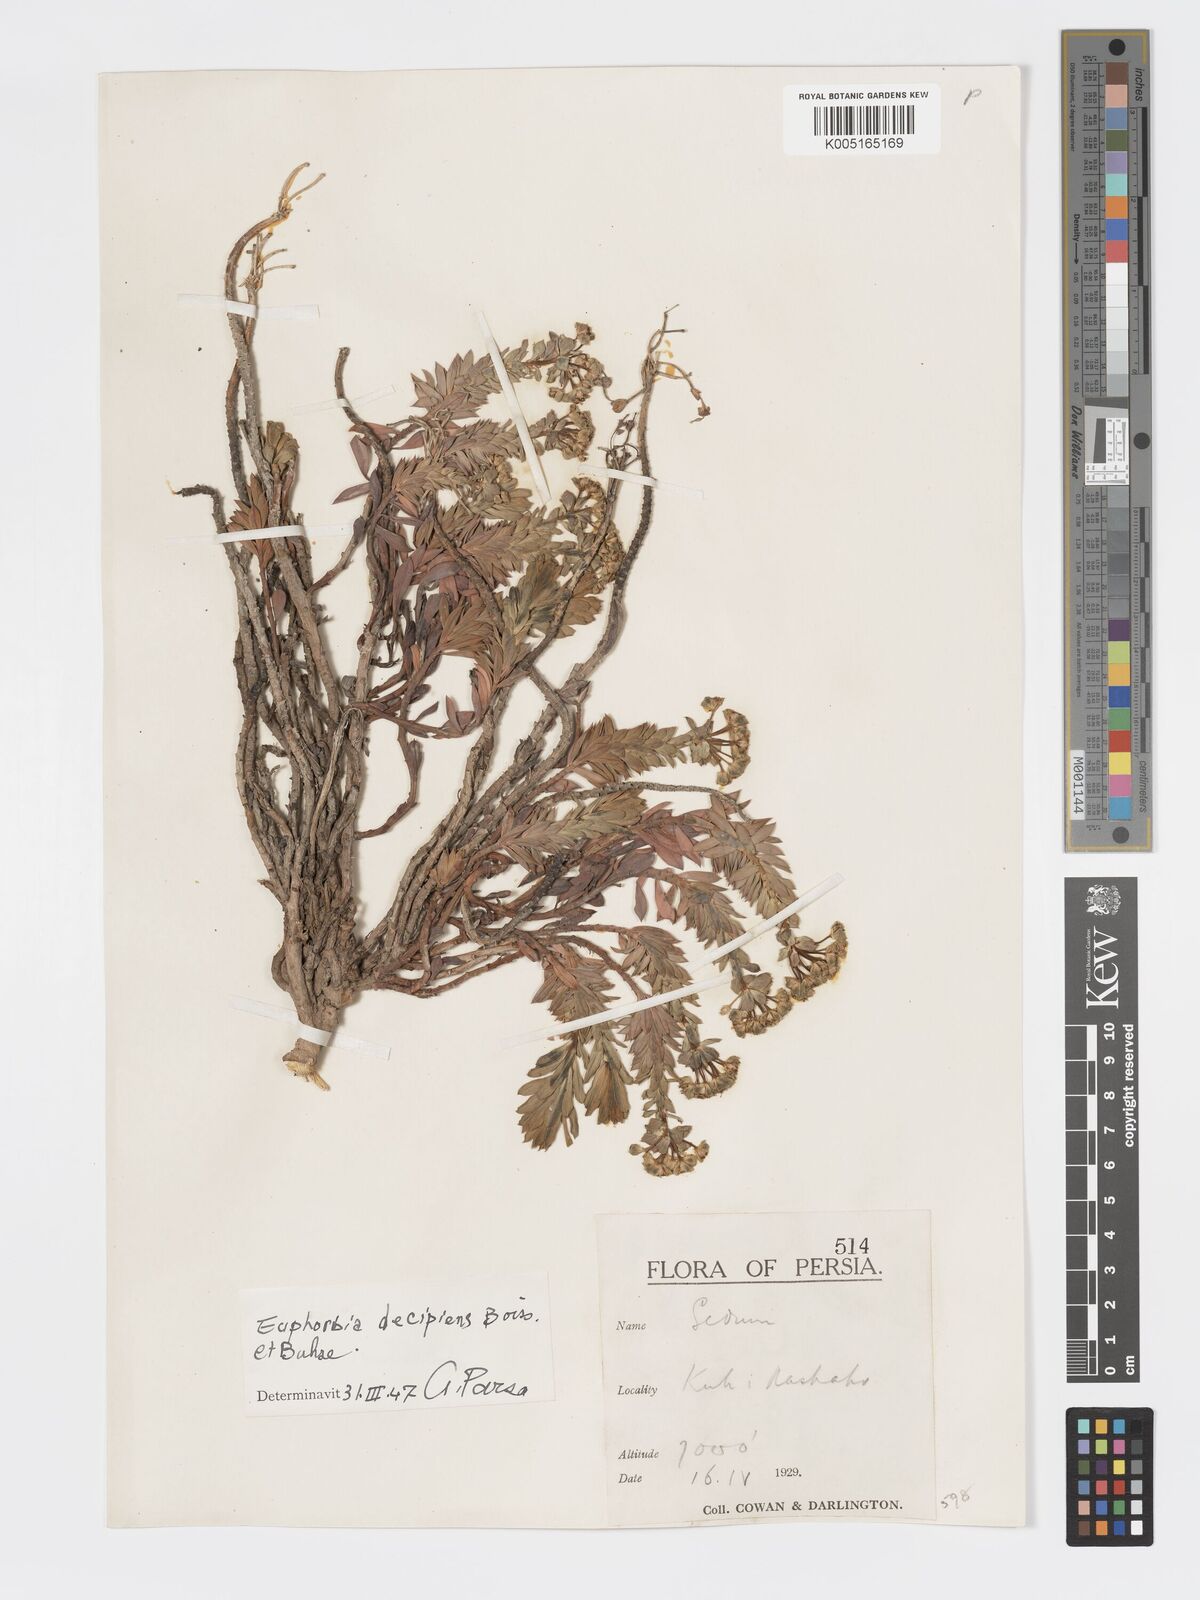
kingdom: Plantae
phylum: Tracheophyta
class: Magnoliopsida
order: Malpighiales
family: Euphorbiaceae
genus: Euphorbia
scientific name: Euphorbia polycaulis
